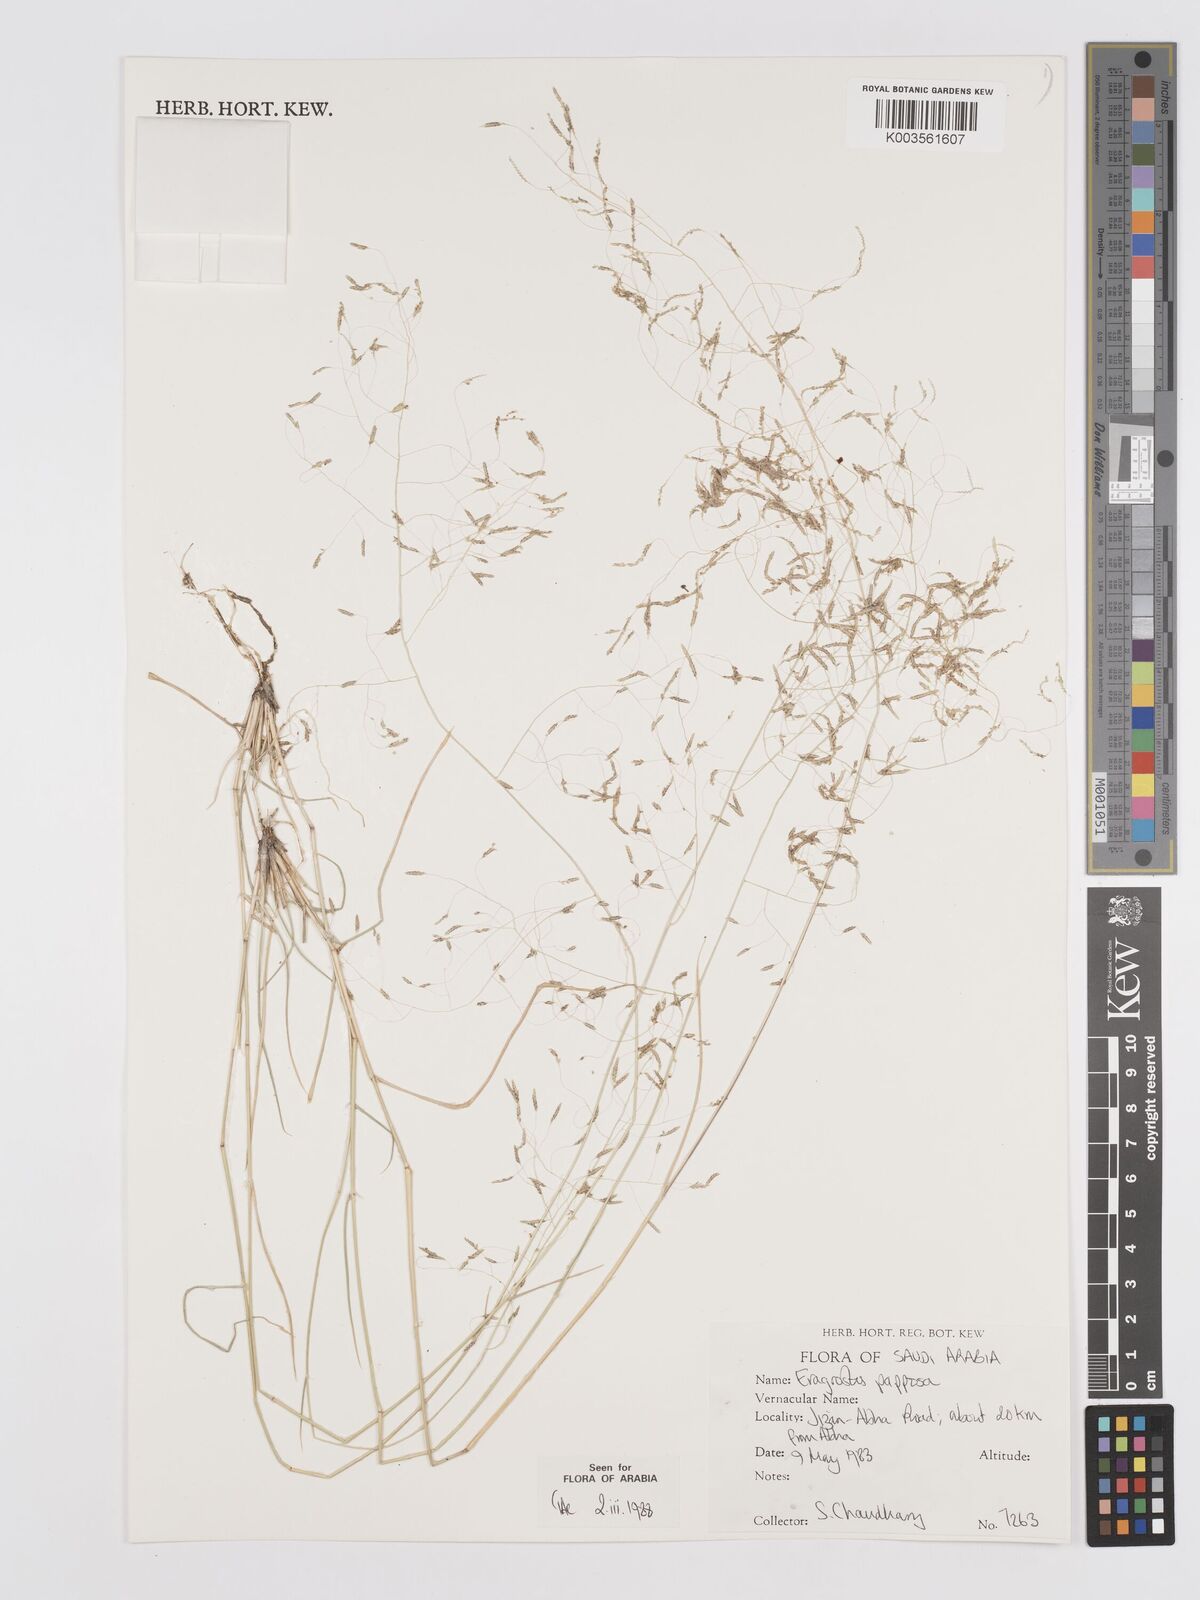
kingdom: Plantae
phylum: Tracheophyta
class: Liliopsida
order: Poales
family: Poaceae
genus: Eragrostis
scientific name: Eragrostis papposa
